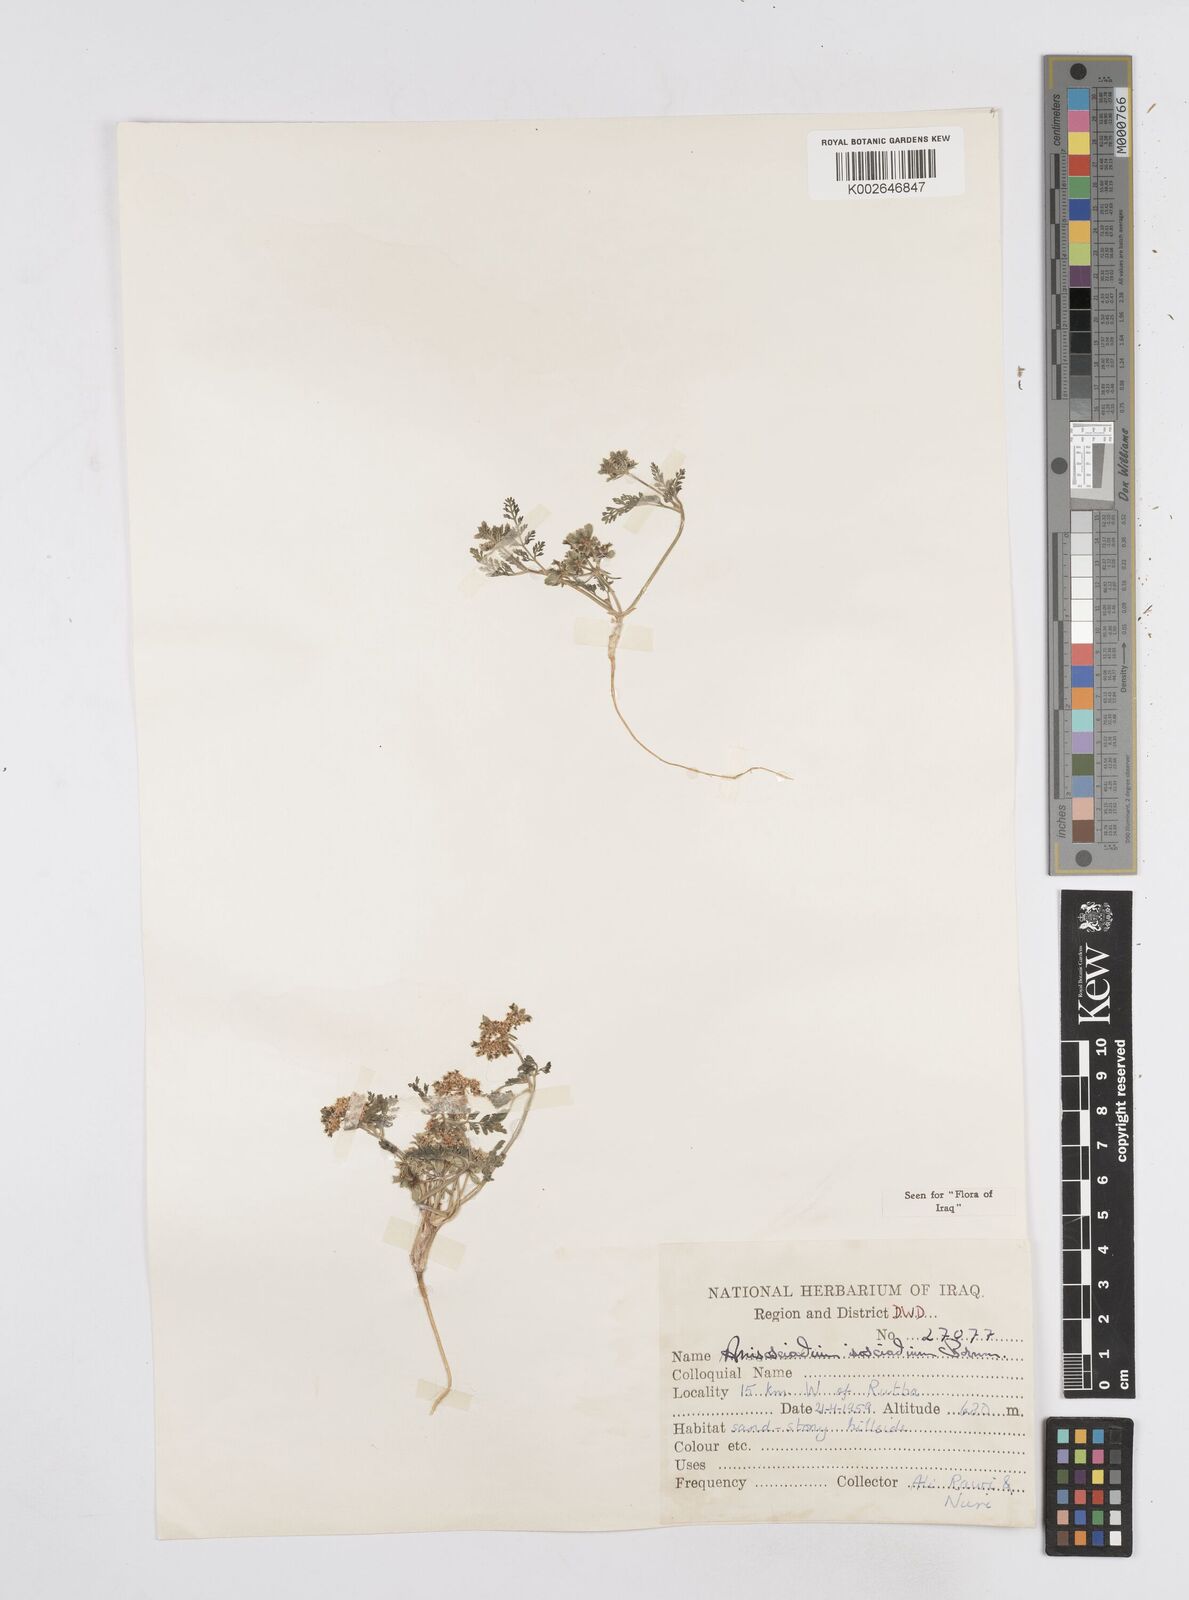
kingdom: Plantae
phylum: Tracheophyta
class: Magnoliopsida
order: Apiales
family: Apiaceae
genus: Anisosciadium
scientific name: Anisosciadium isosciadium
